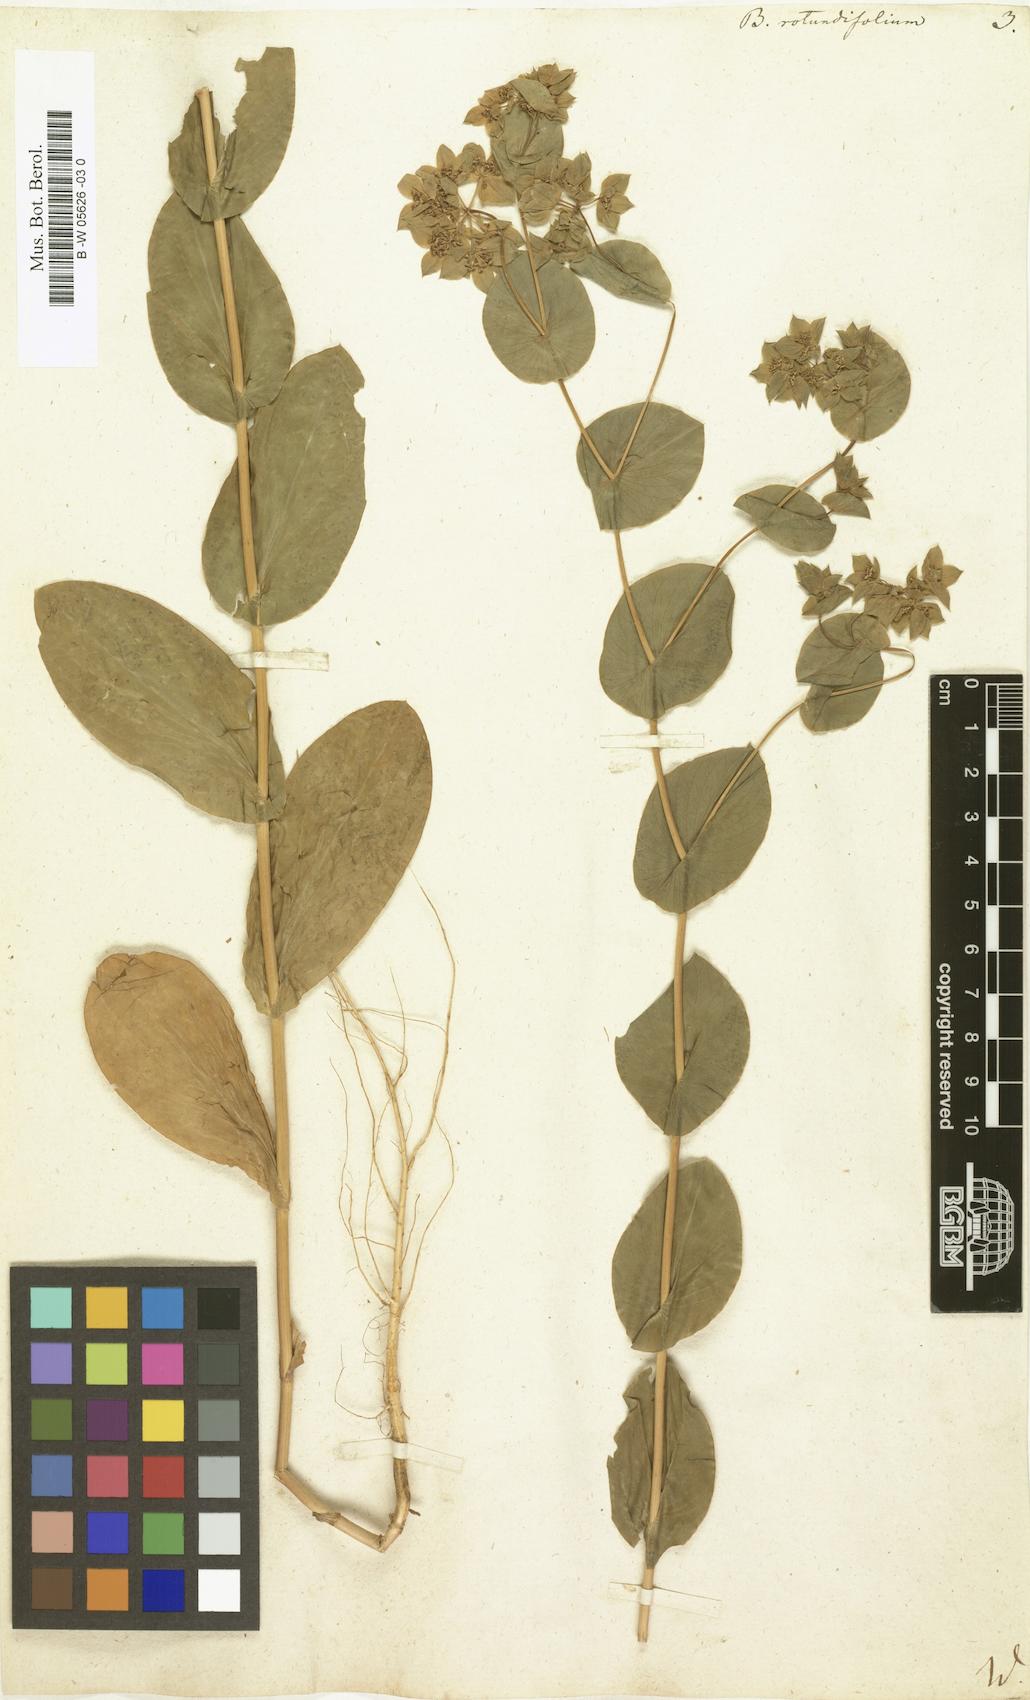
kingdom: Plantae
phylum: Tracheophyta
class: Magnoliopsida
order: Apiales
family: Apiaceae
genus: Bupleurum
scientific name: Bupleurum rotundifolium
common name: Thorow-wax
